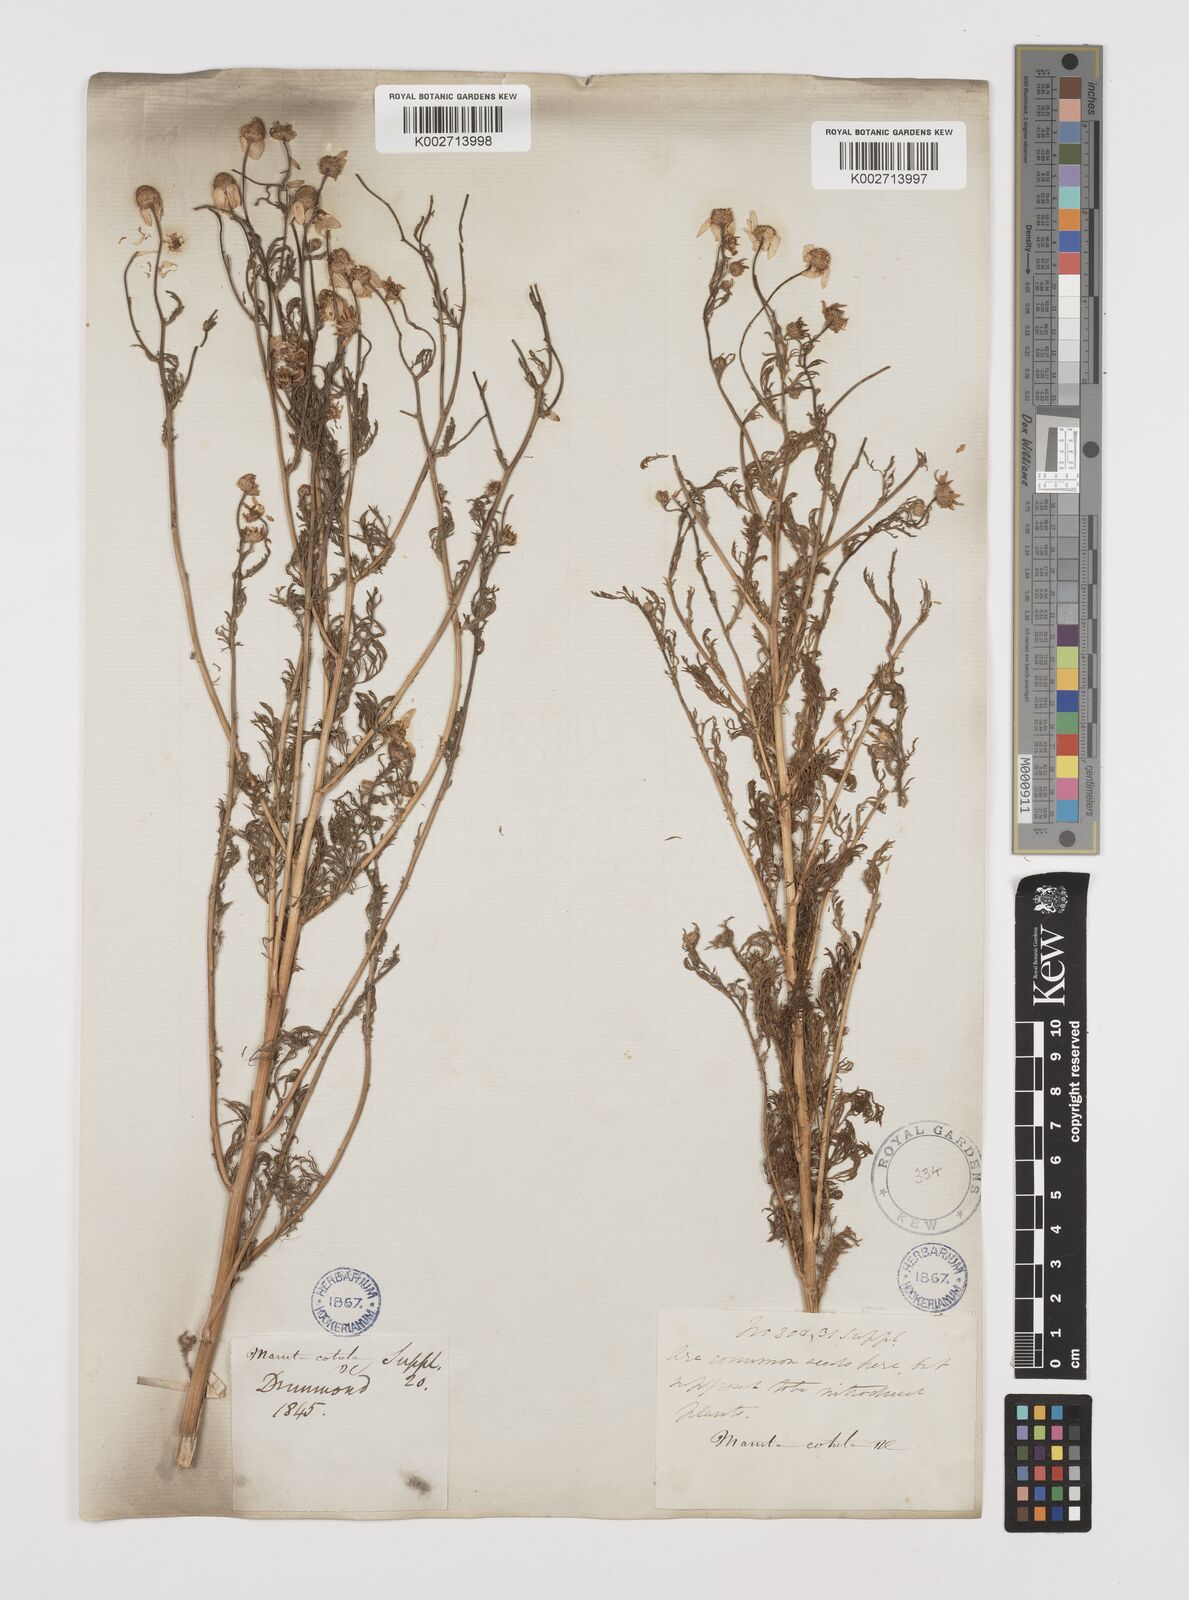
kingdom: Plantae
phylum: Tracheophyta
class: Magnoliopsida
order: Asterales
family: Asteraceae
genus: Anthemis
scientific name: Anthemis cotula
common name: Stinking chamomile
